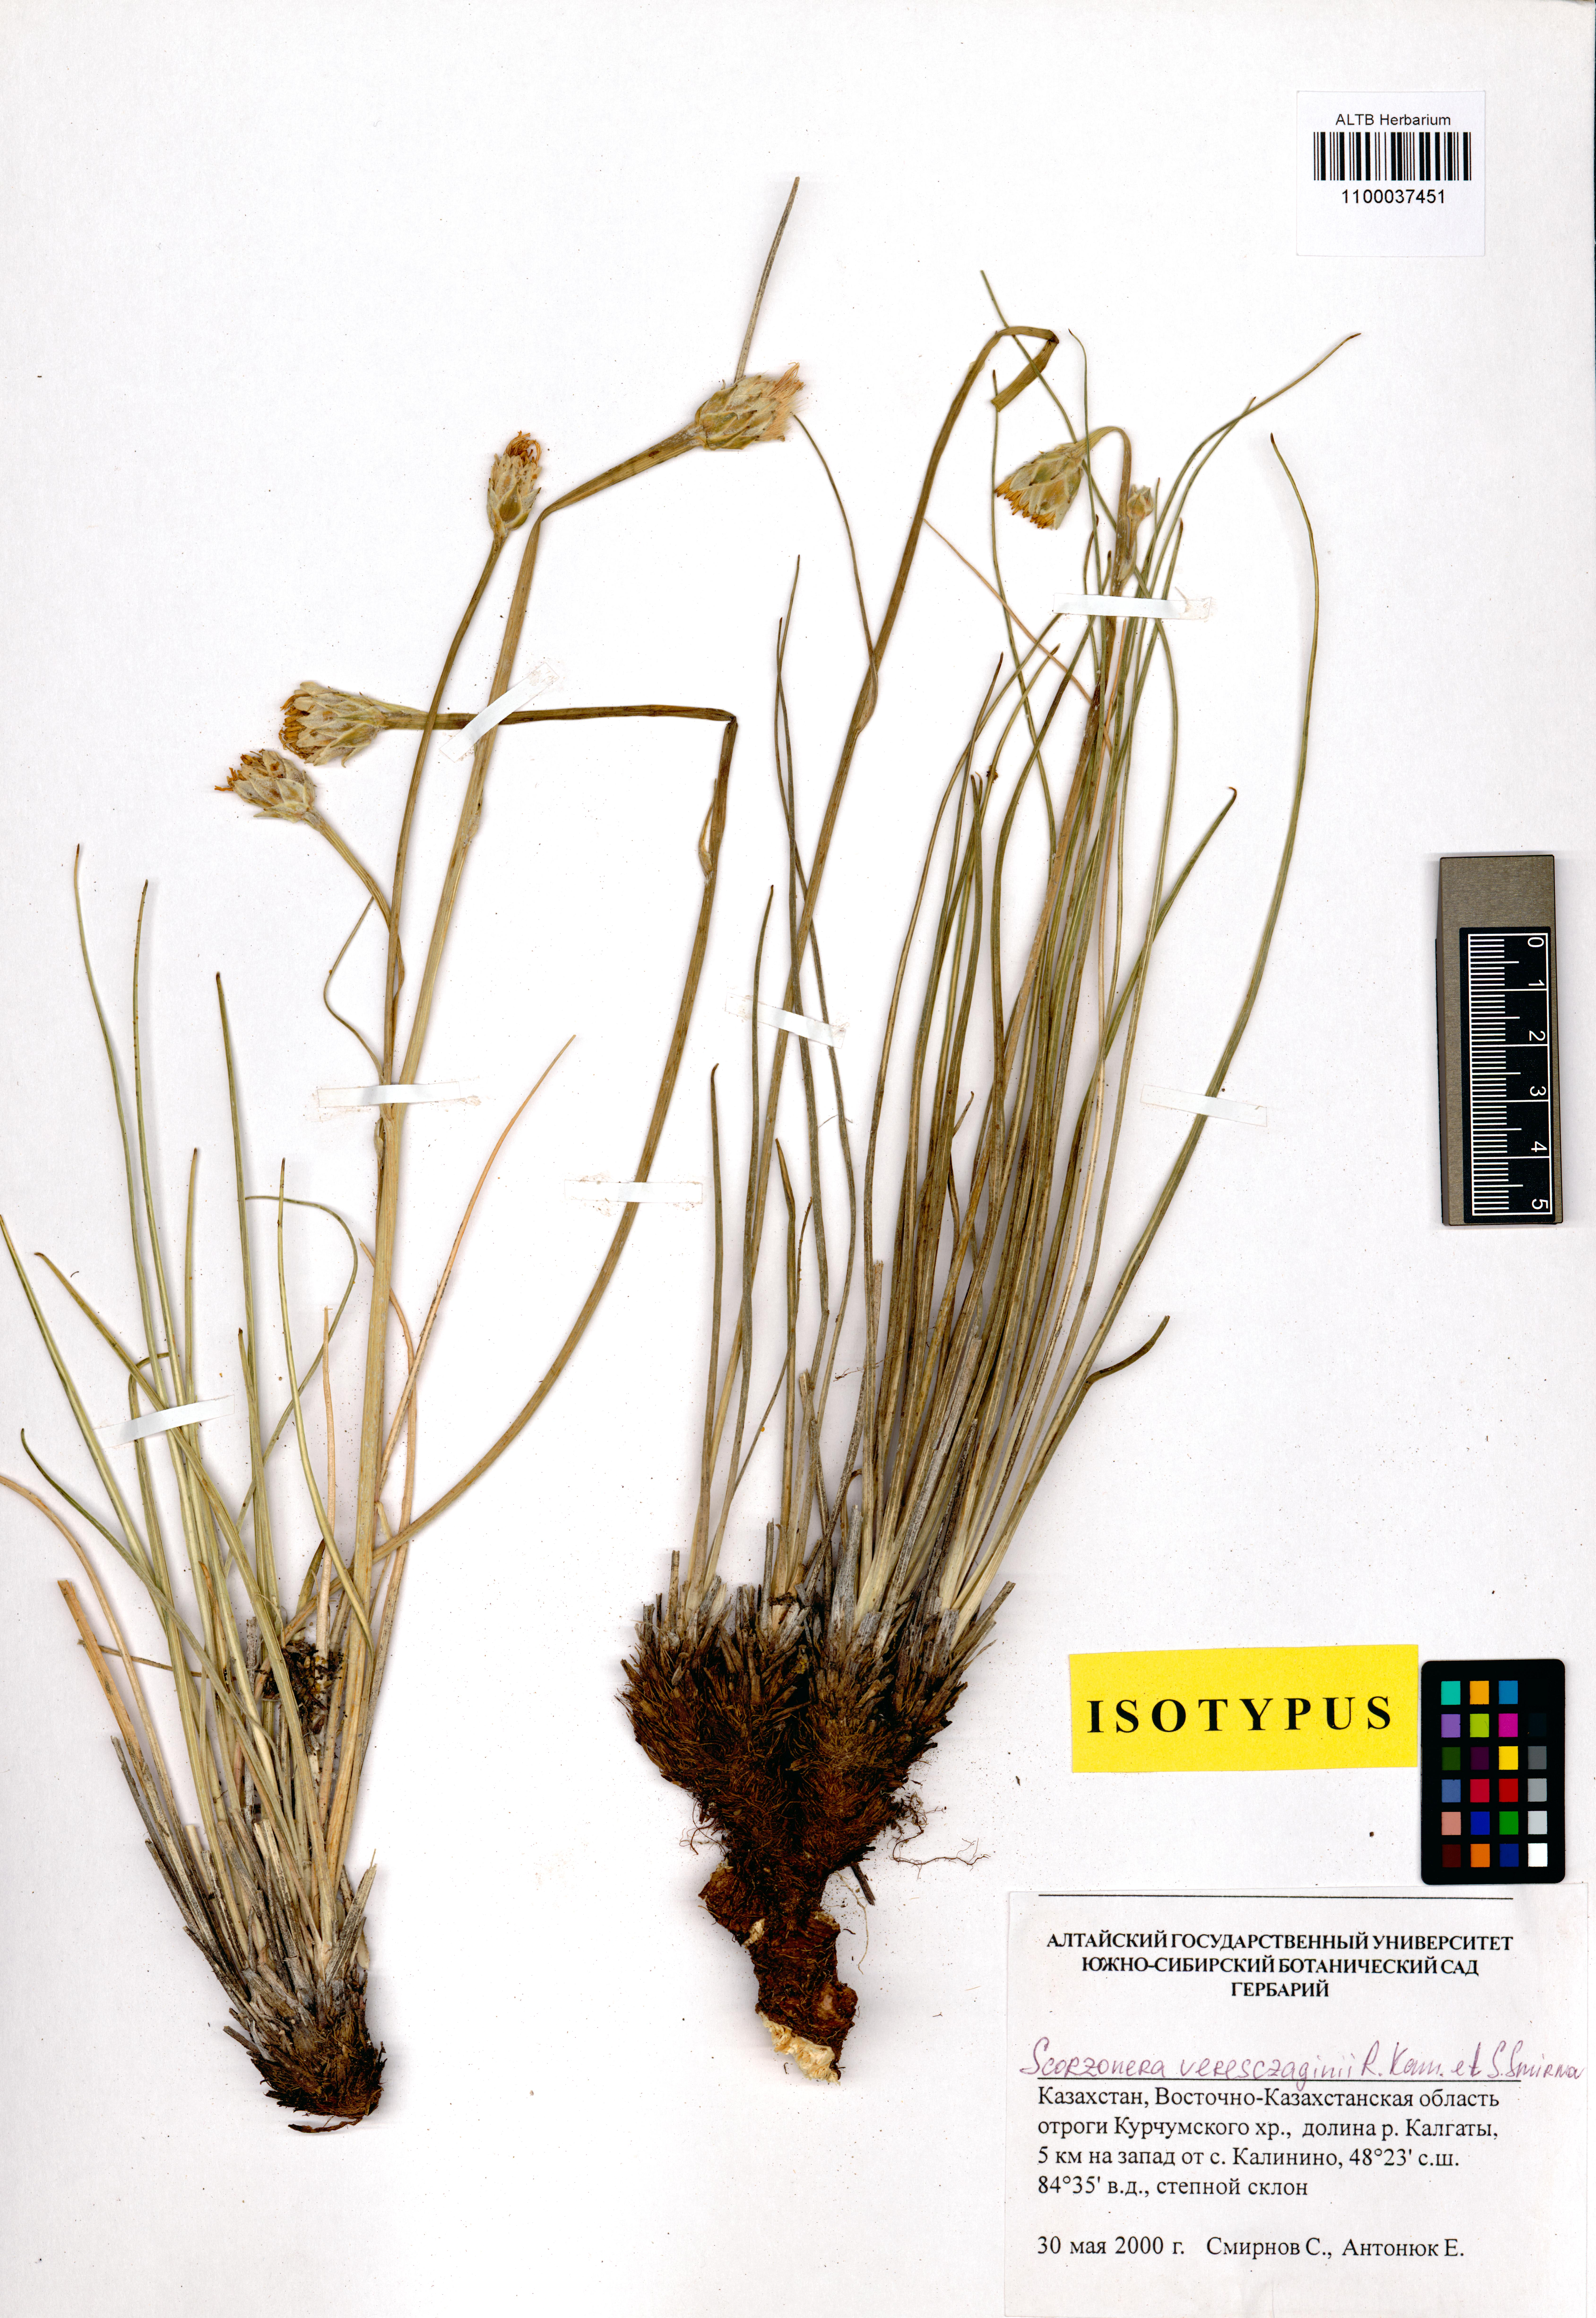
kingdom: Plantae
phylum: Tracheophyta
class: Magnoliopsida
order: Asterales
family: Asteraceae
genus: Takhtajaniantha
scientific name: Takhtajaniantha veresczaginii
